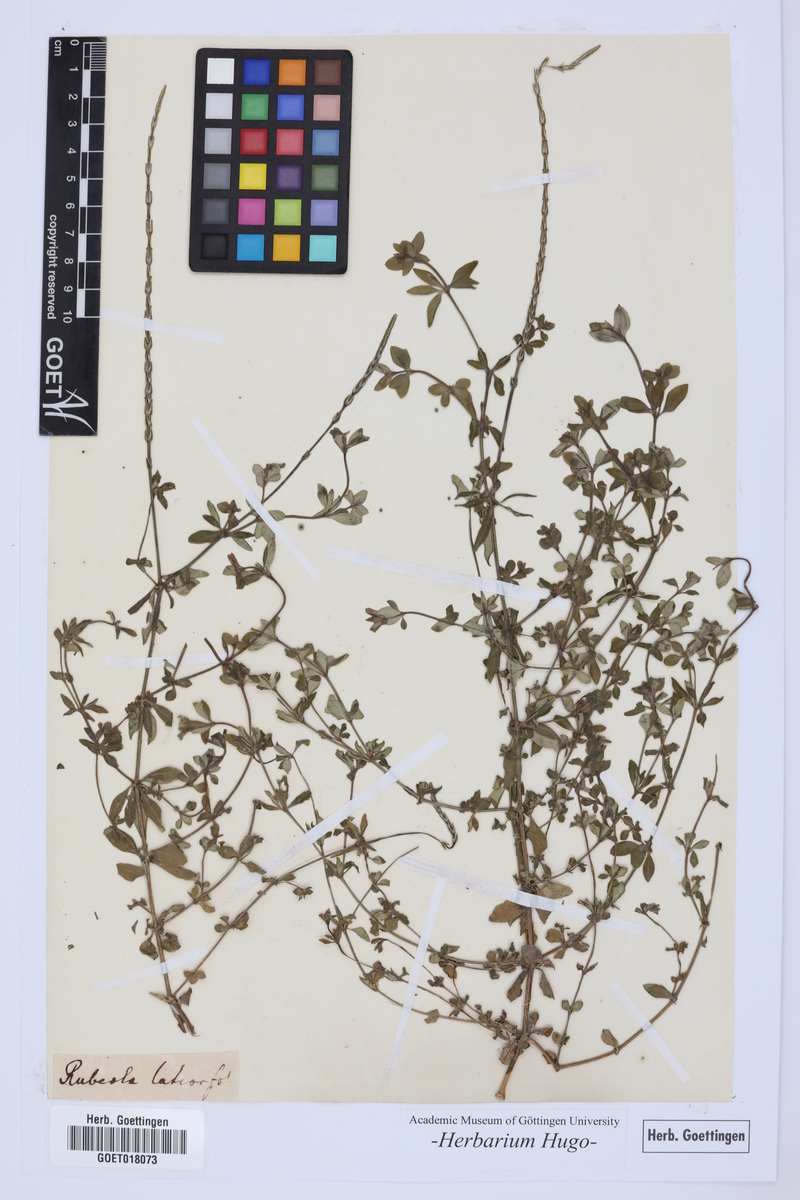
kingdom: Plantae
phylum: Tracheophyta
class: Magnoliopsida
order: Gentianales
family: Rubiaceae
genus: Crucianella
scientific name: Crucianella latifolia
